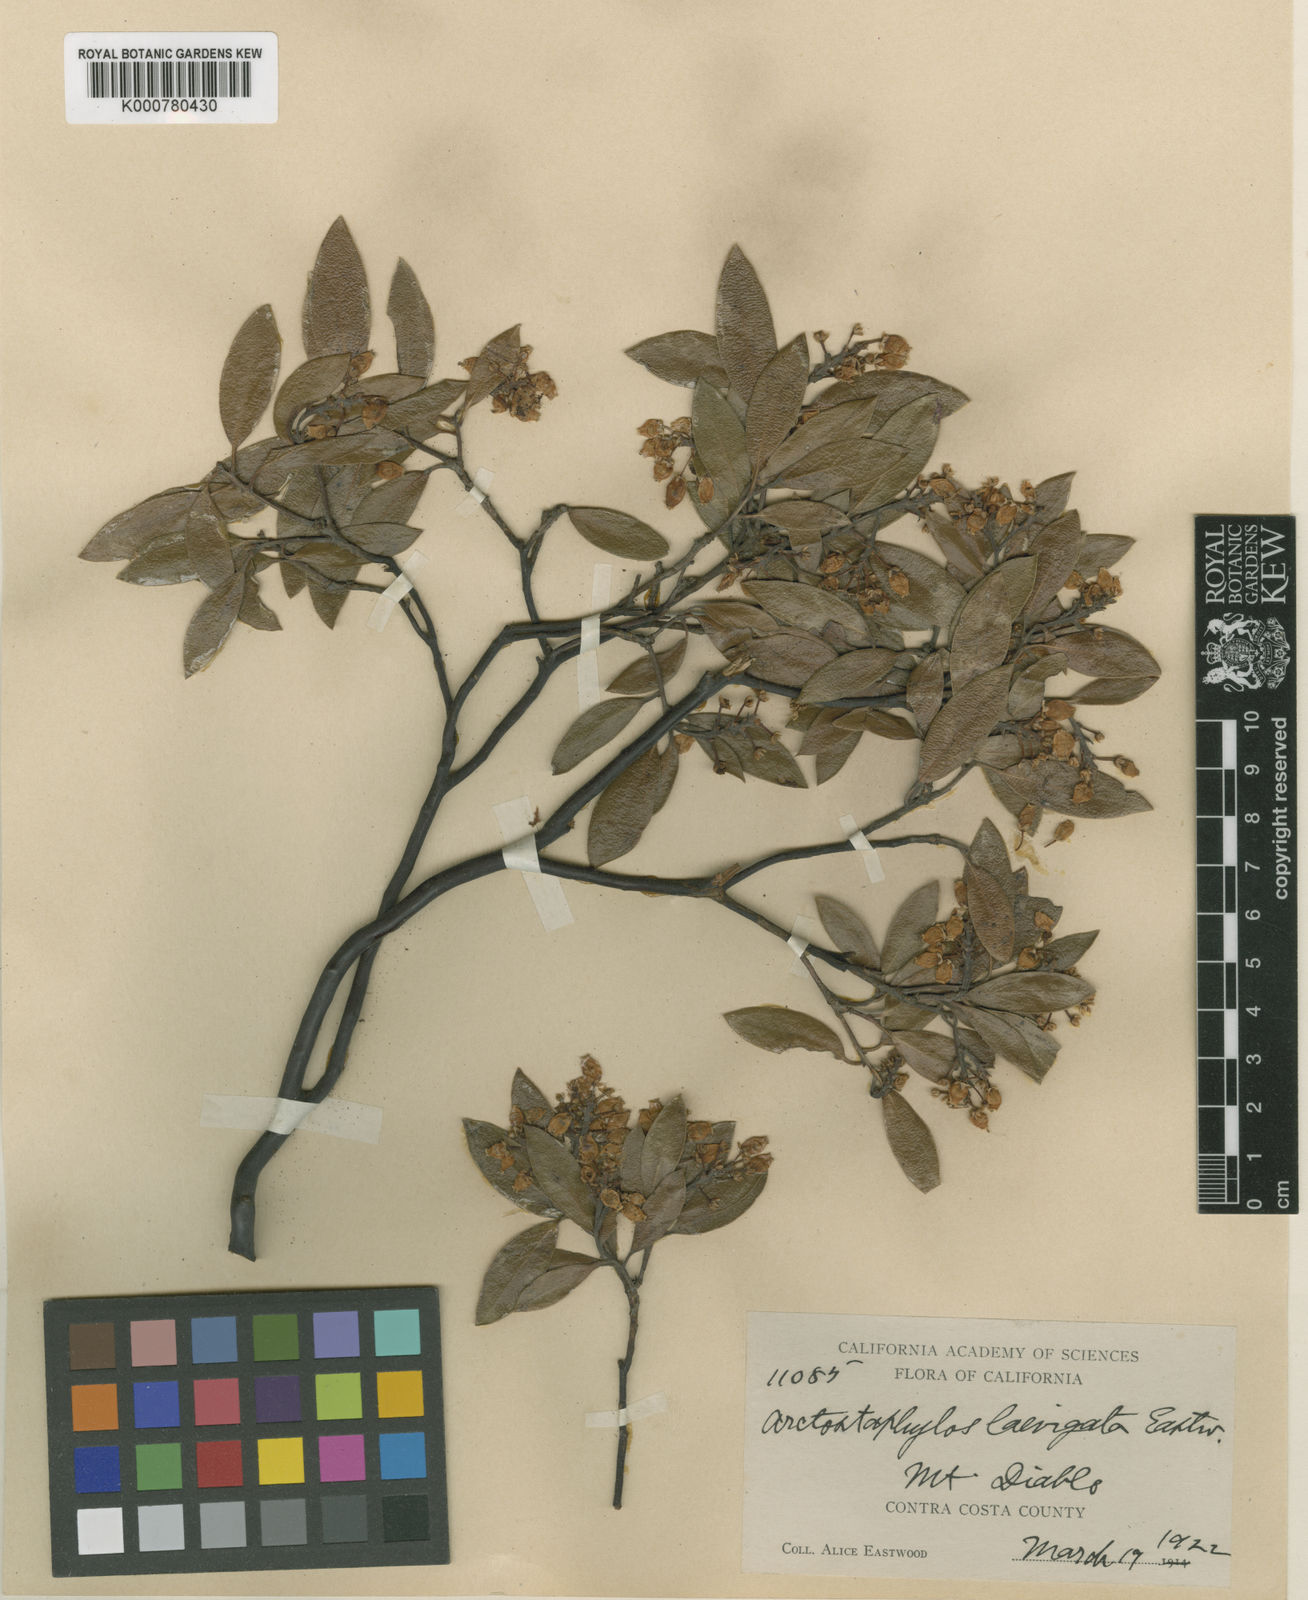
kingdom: Plantae
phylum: Tracheophyta
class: Magnoliopsida
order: Ericales
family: Ericaceae
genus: Arctostaphylos
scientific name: Arctostaphylos manzanita
